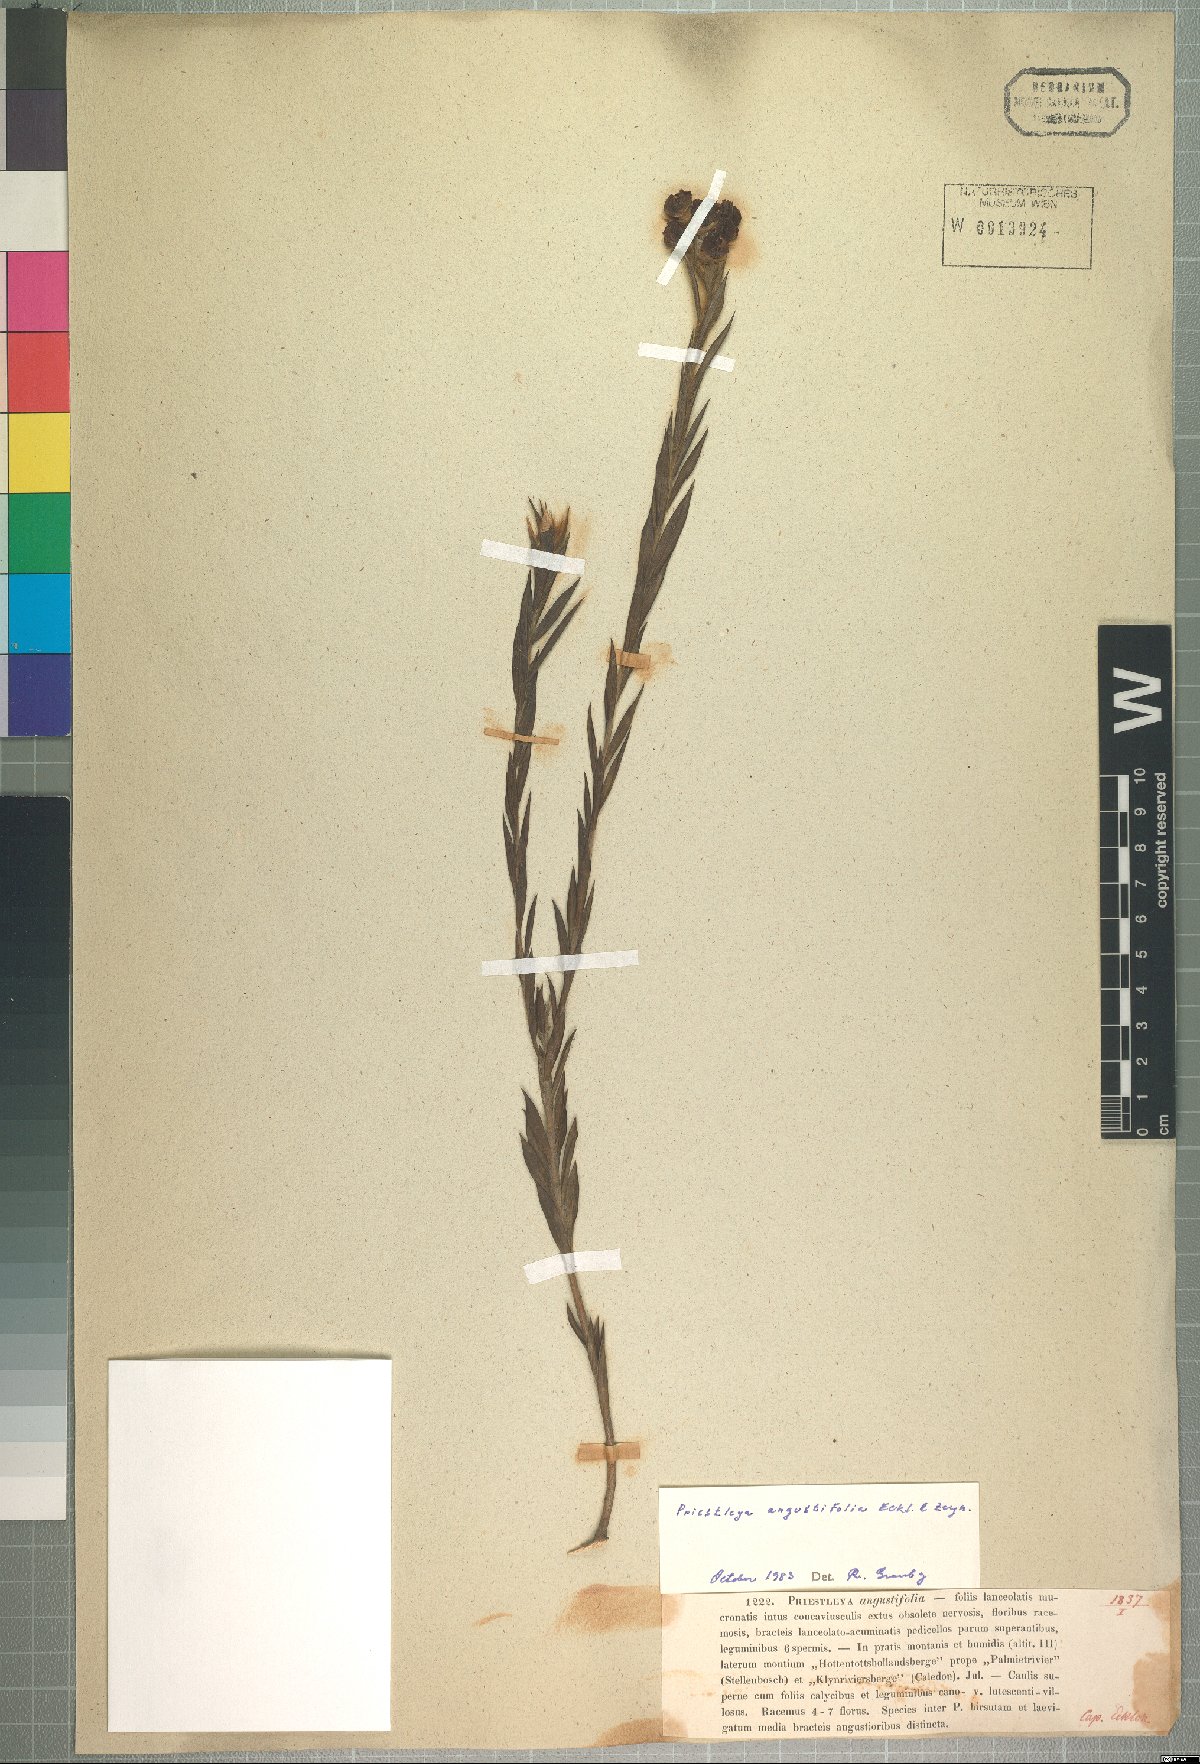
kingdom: Plantae
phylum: Tracheophyta
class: Magnoliopsida
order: Fabales
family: Fabaceae
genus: Liparia
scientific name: Liparia angustifolia
